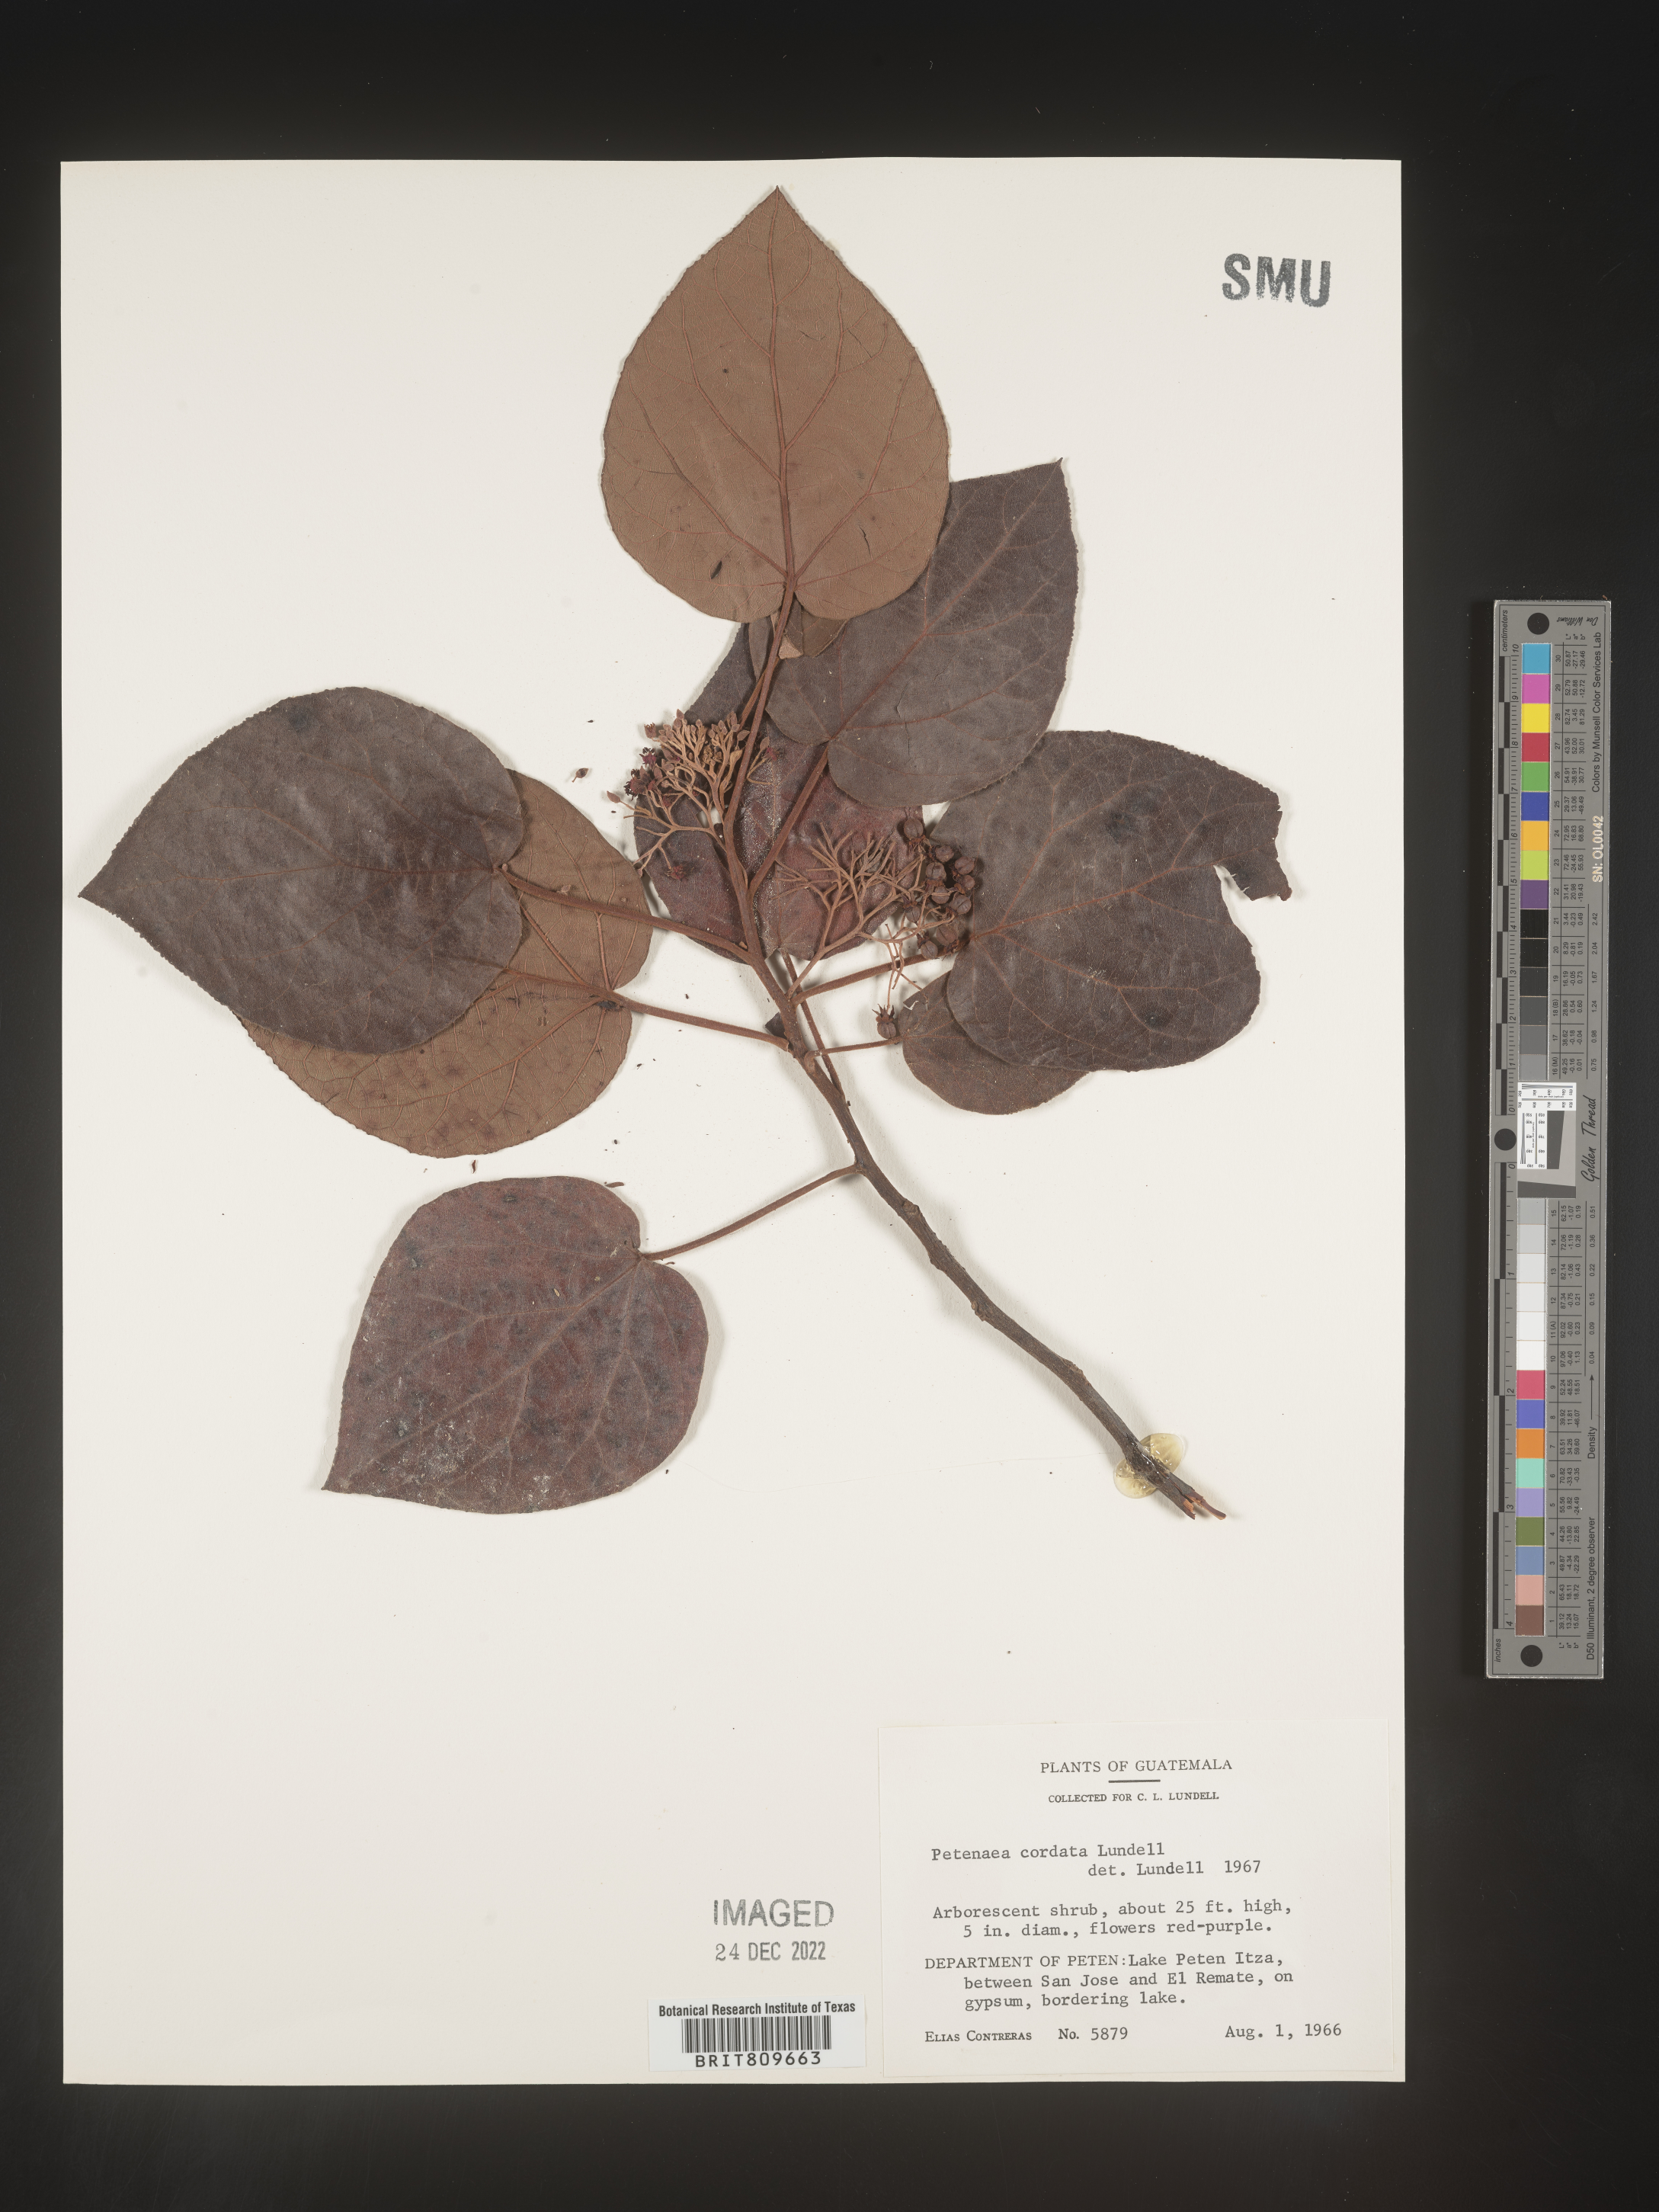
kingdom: Plantae
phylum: Tracheophyta
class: Magnoliopsida
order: Huerteales
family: Petenaeaceae
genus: Petenaea
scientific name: Petenaea
